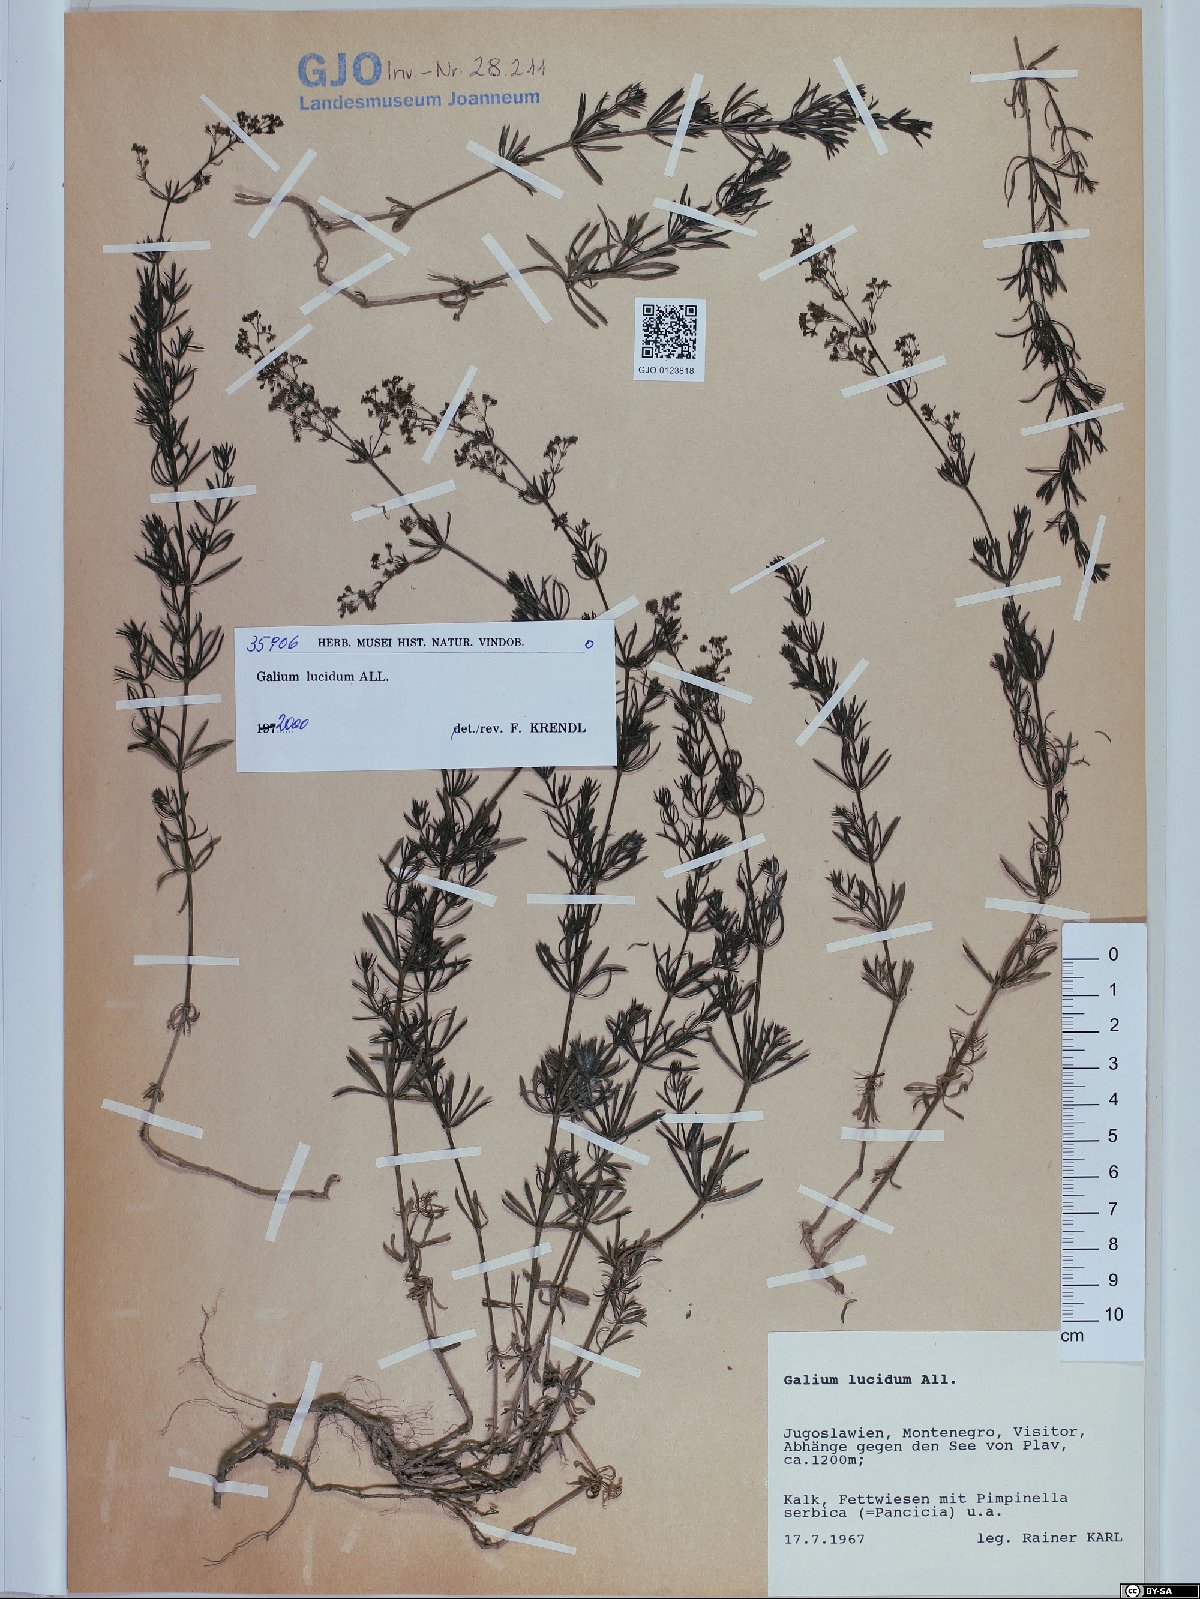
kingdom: Plantae
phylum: Tracheophyta
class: Magnoliopsida
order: Gentianales
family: Rubiaceae
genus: Galium
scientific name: Galium lucidum
